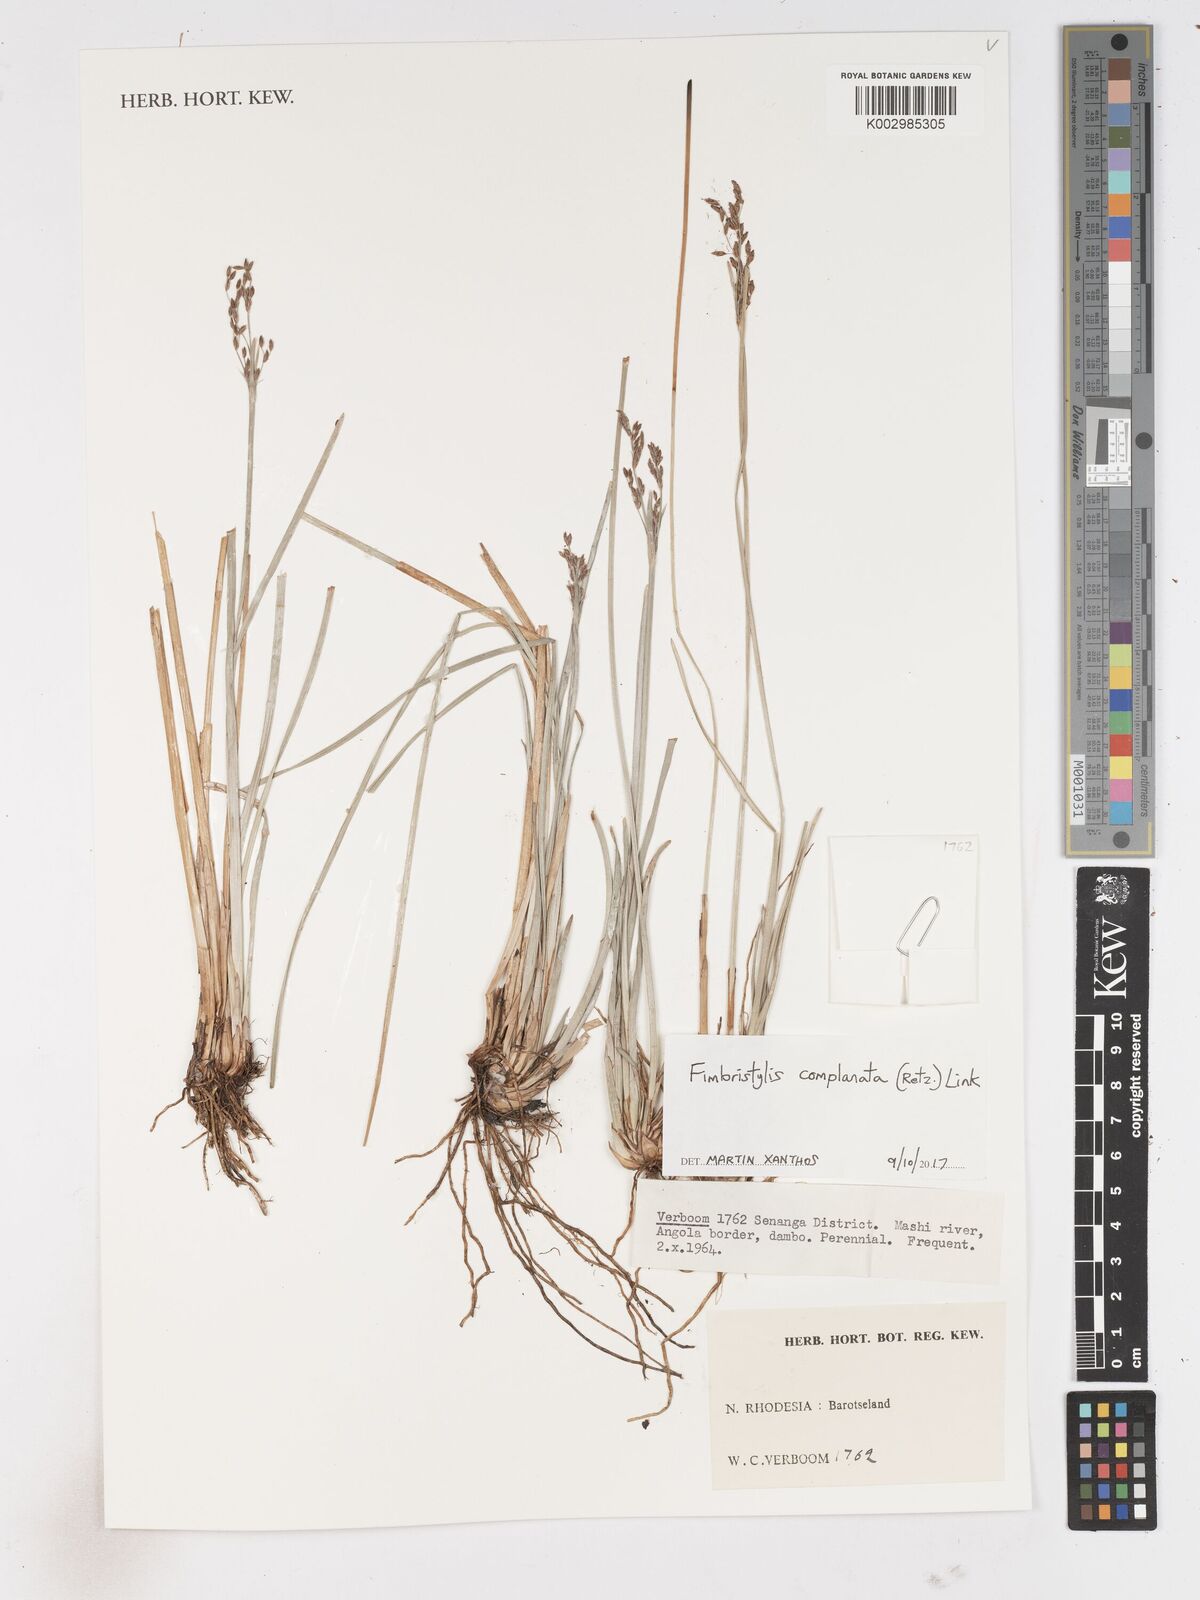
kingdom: Plantae
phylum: Tracheophyta
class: Liliopsida
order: Poales
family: Cyperaceae
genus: Fimbristylis
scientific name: Fimbristylis complanata
